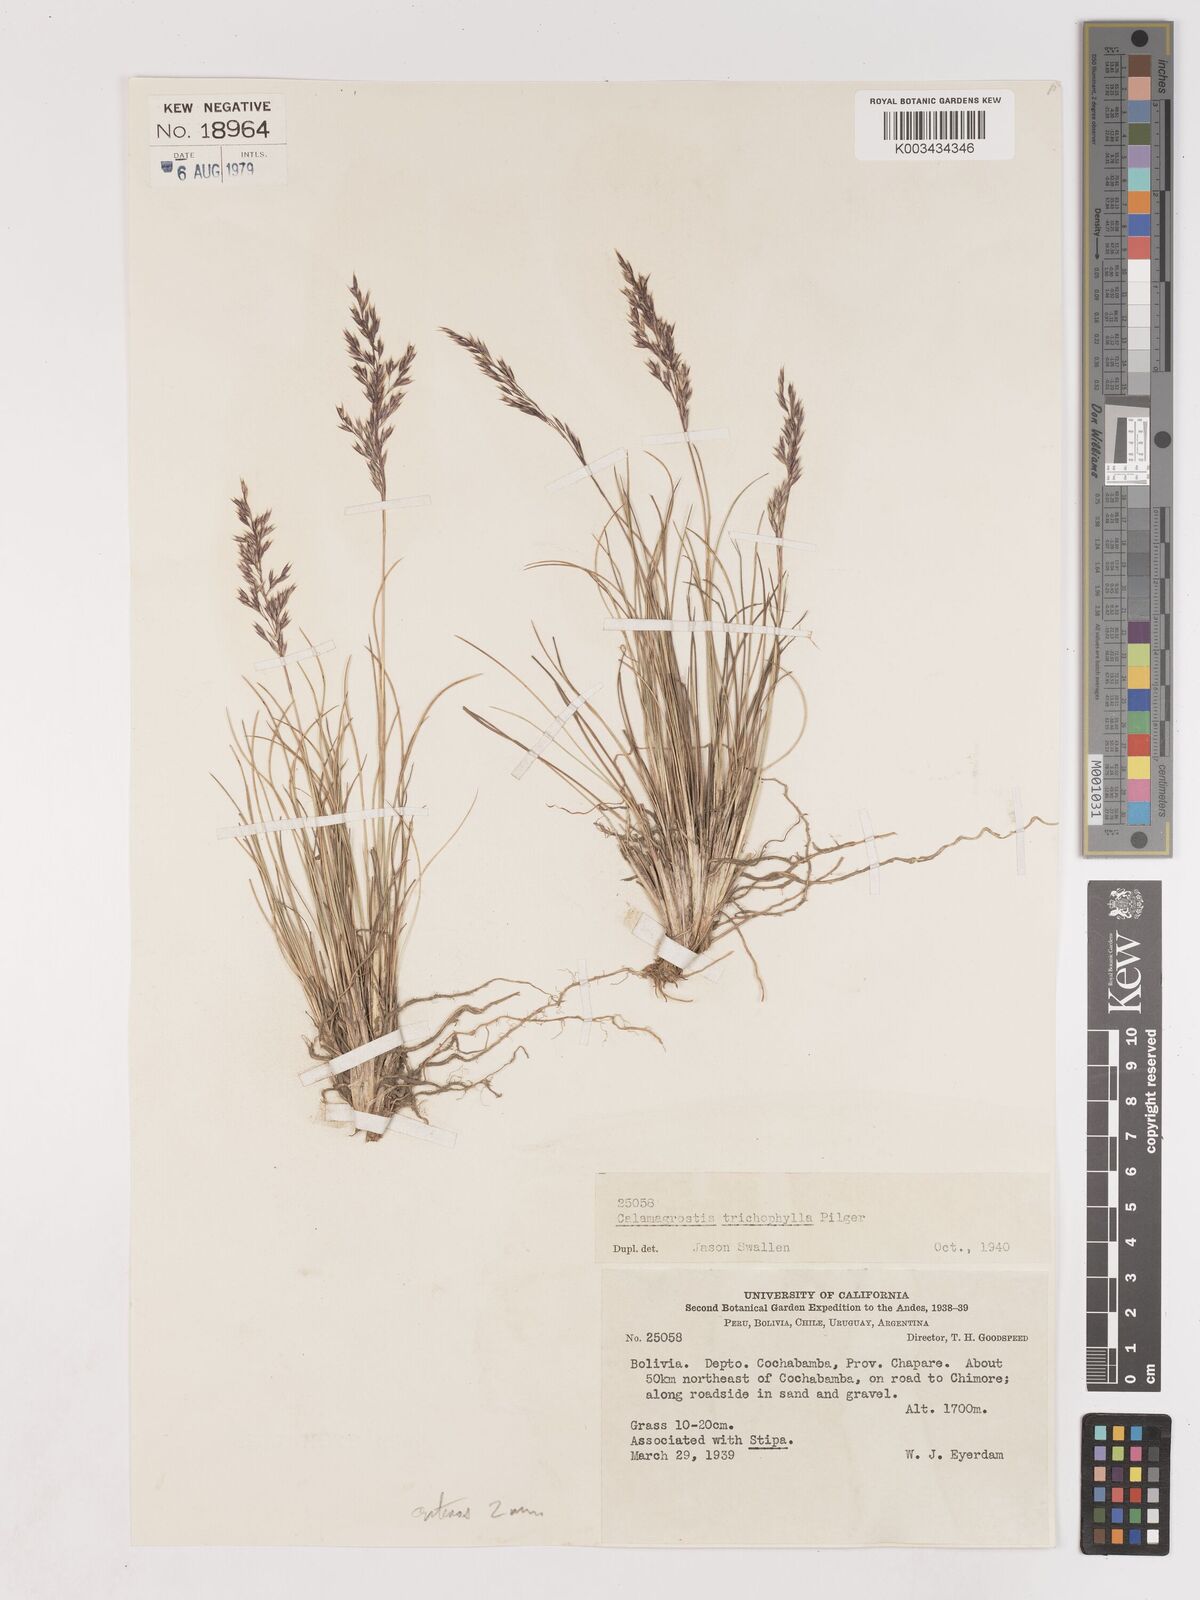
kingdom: Plantae
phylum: Tracheophyta
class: Liliopsida
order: Poales
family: Poaceae
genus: Cinnagrostis
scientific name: Cinnagrostis violacea
